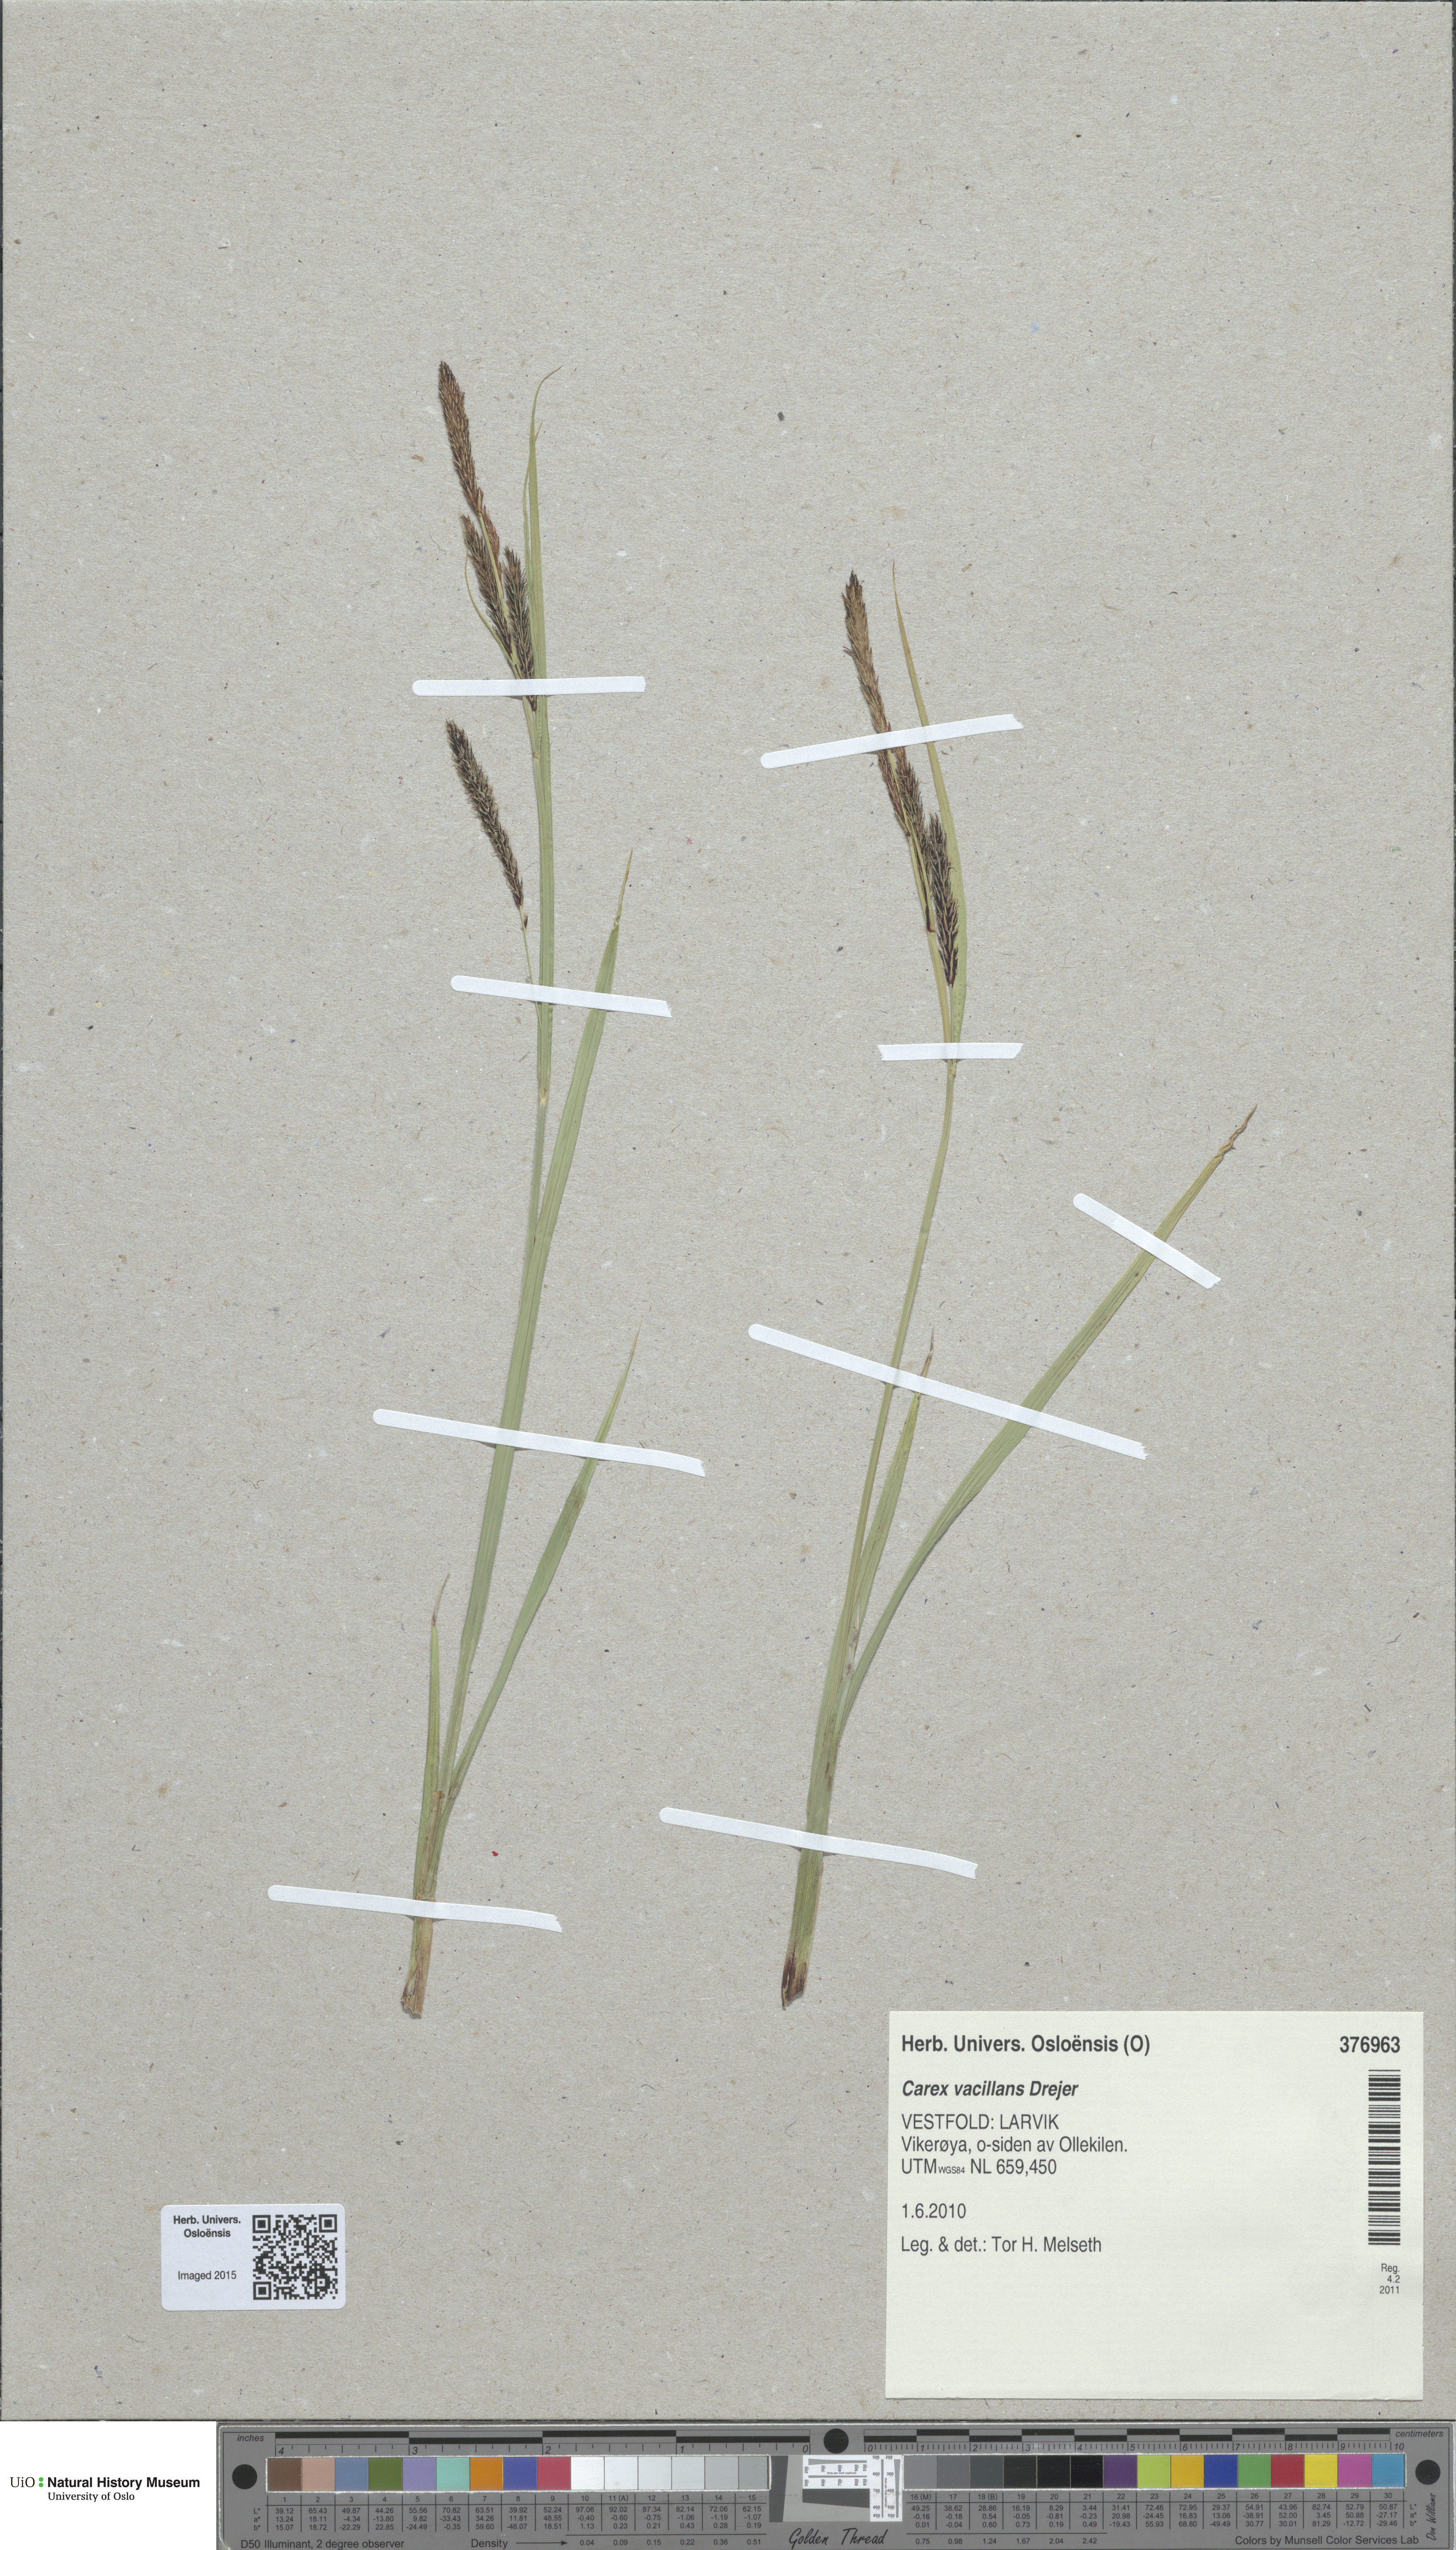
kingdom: Plantae
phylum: Tracheophyta
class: Liliopsida
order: Poales
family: Cyperaceae
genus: Carex
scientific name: Carex vacillans
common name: Sedge
